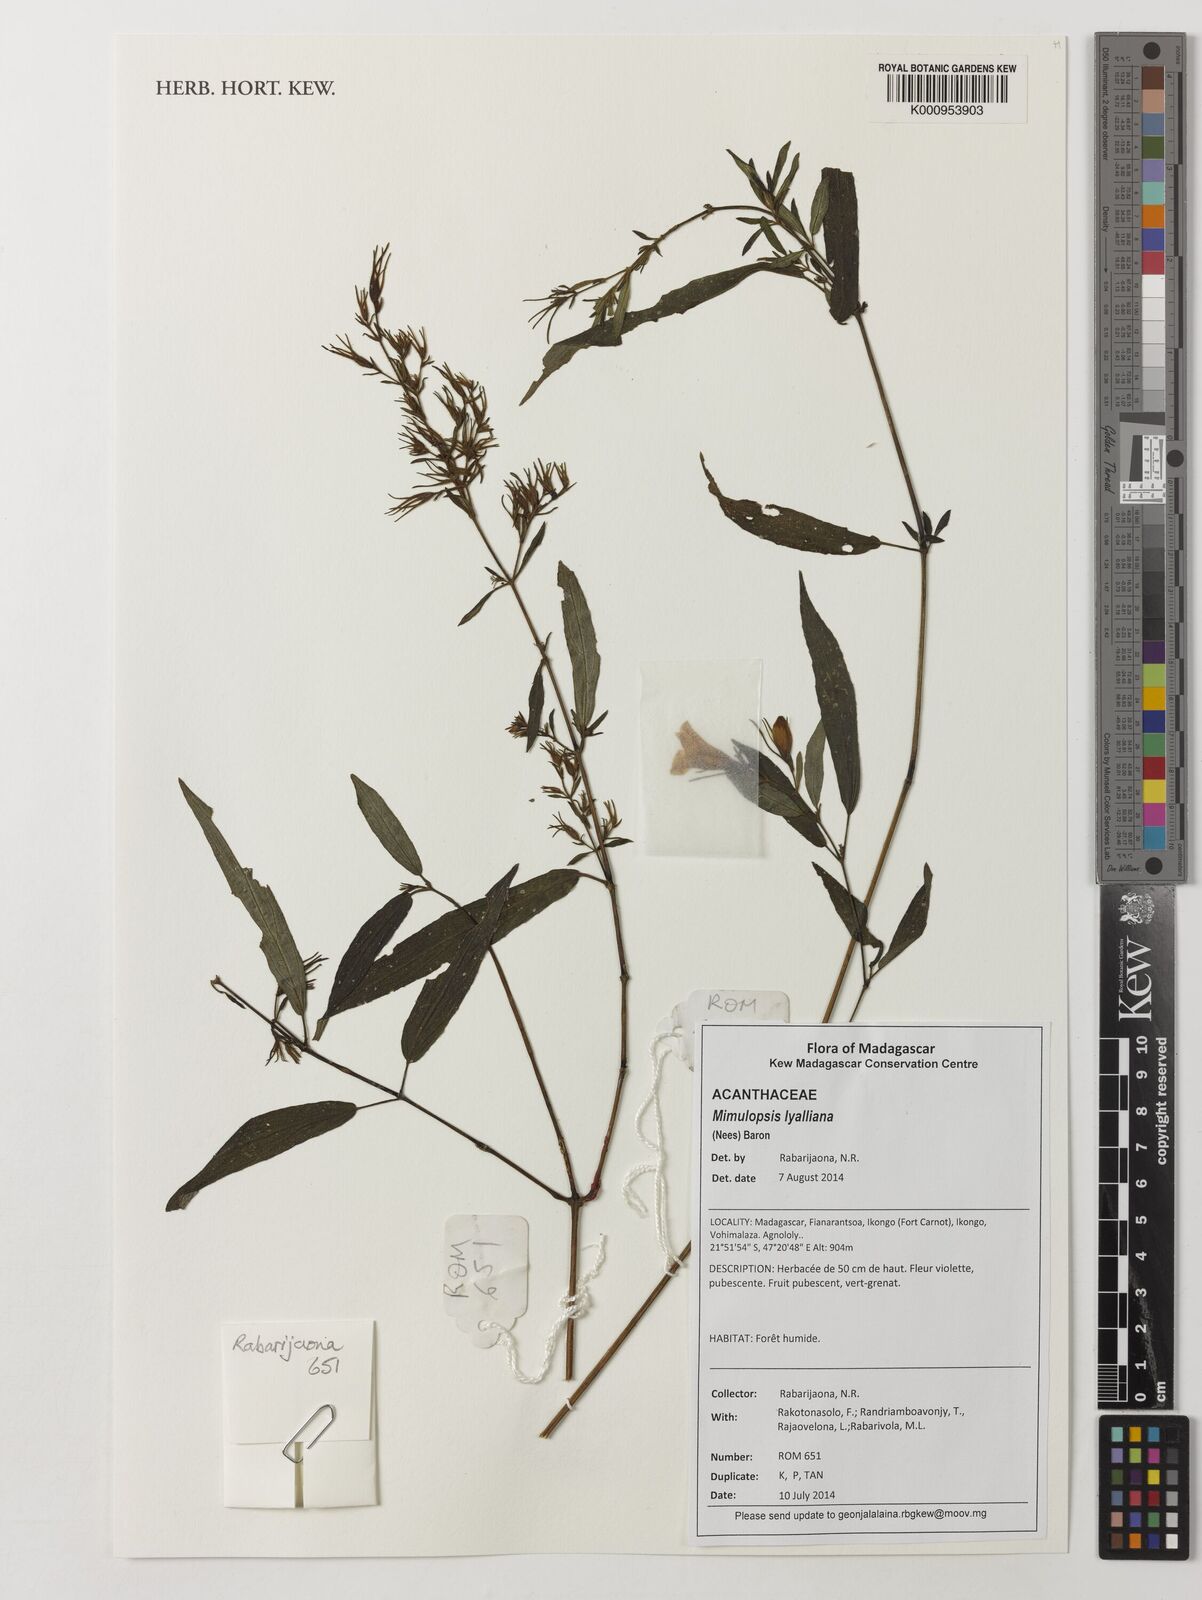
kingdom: Plantae
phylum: Tracheophyta
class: Magnoliopsida
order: Lamiales
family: Acanthaceae
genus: Mimulopsis
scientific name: Mimulopsis
